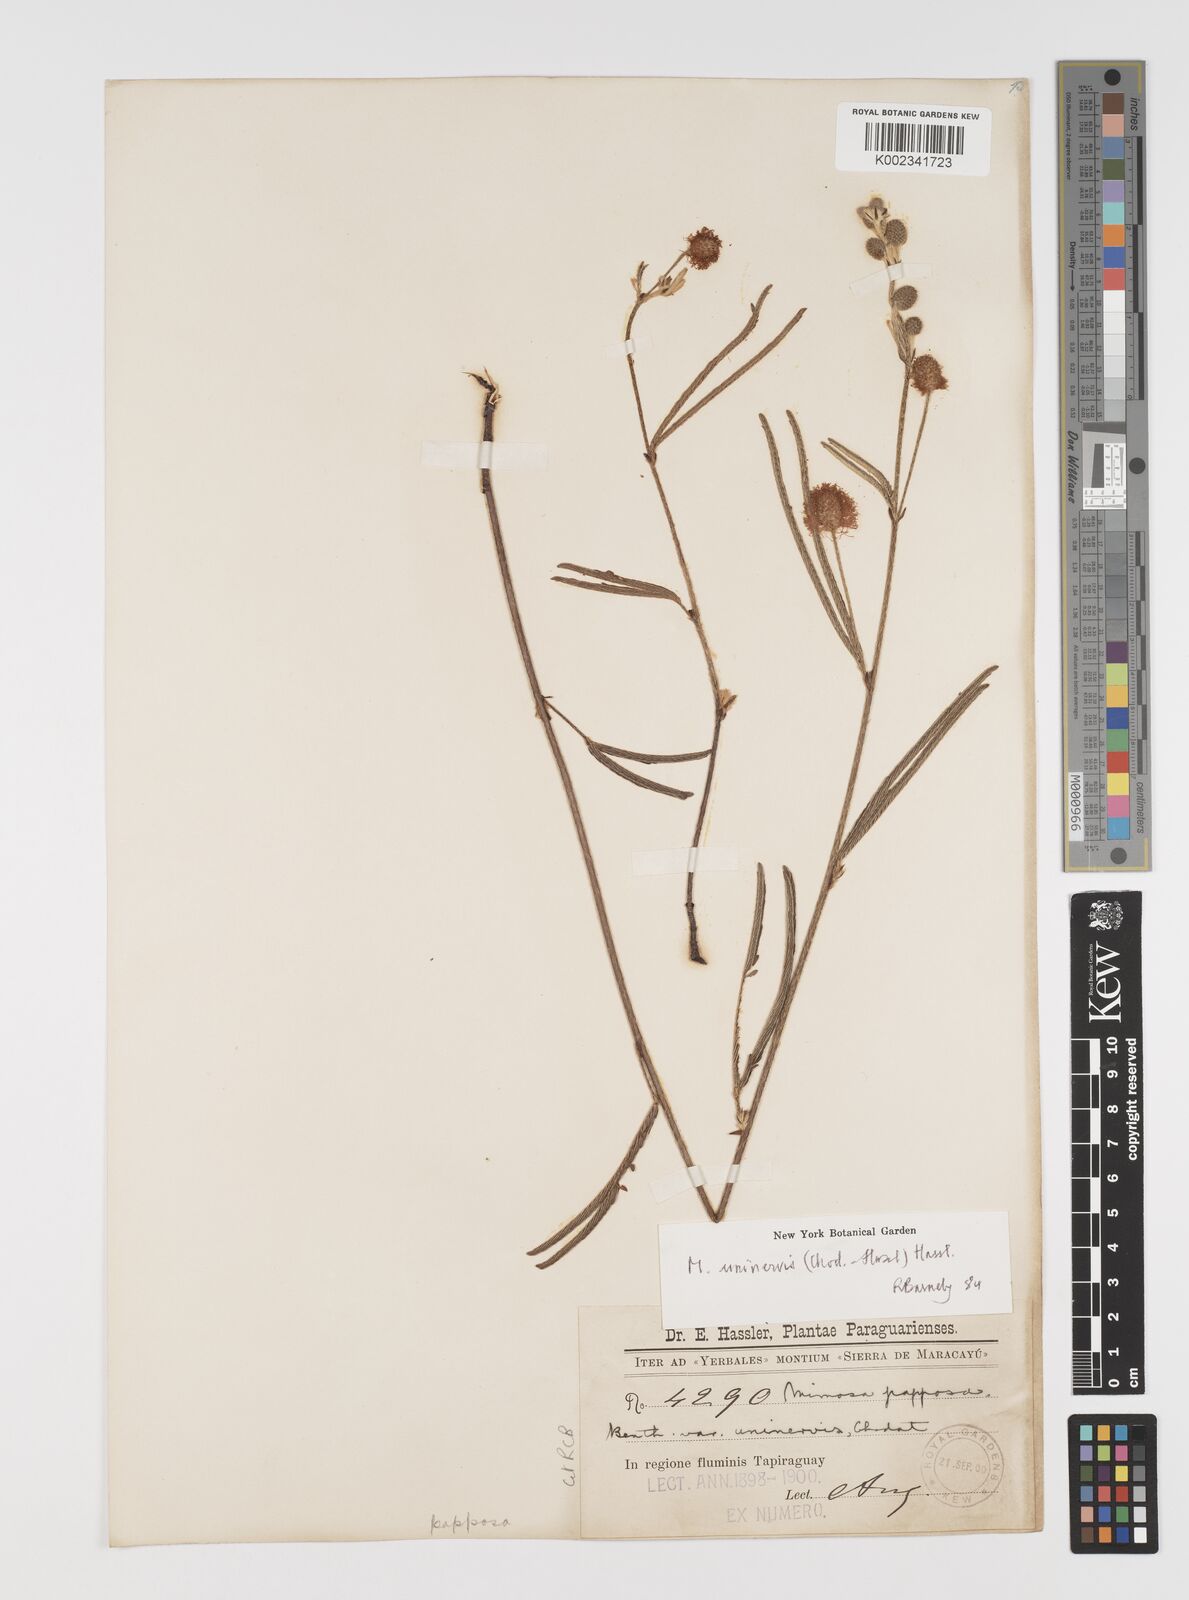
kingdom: Plantae
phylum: Tracheophyta
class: Magnoliopsida
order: Fabales
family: Fabaceae
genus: Mimosa
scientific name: Mimosa uninervis
